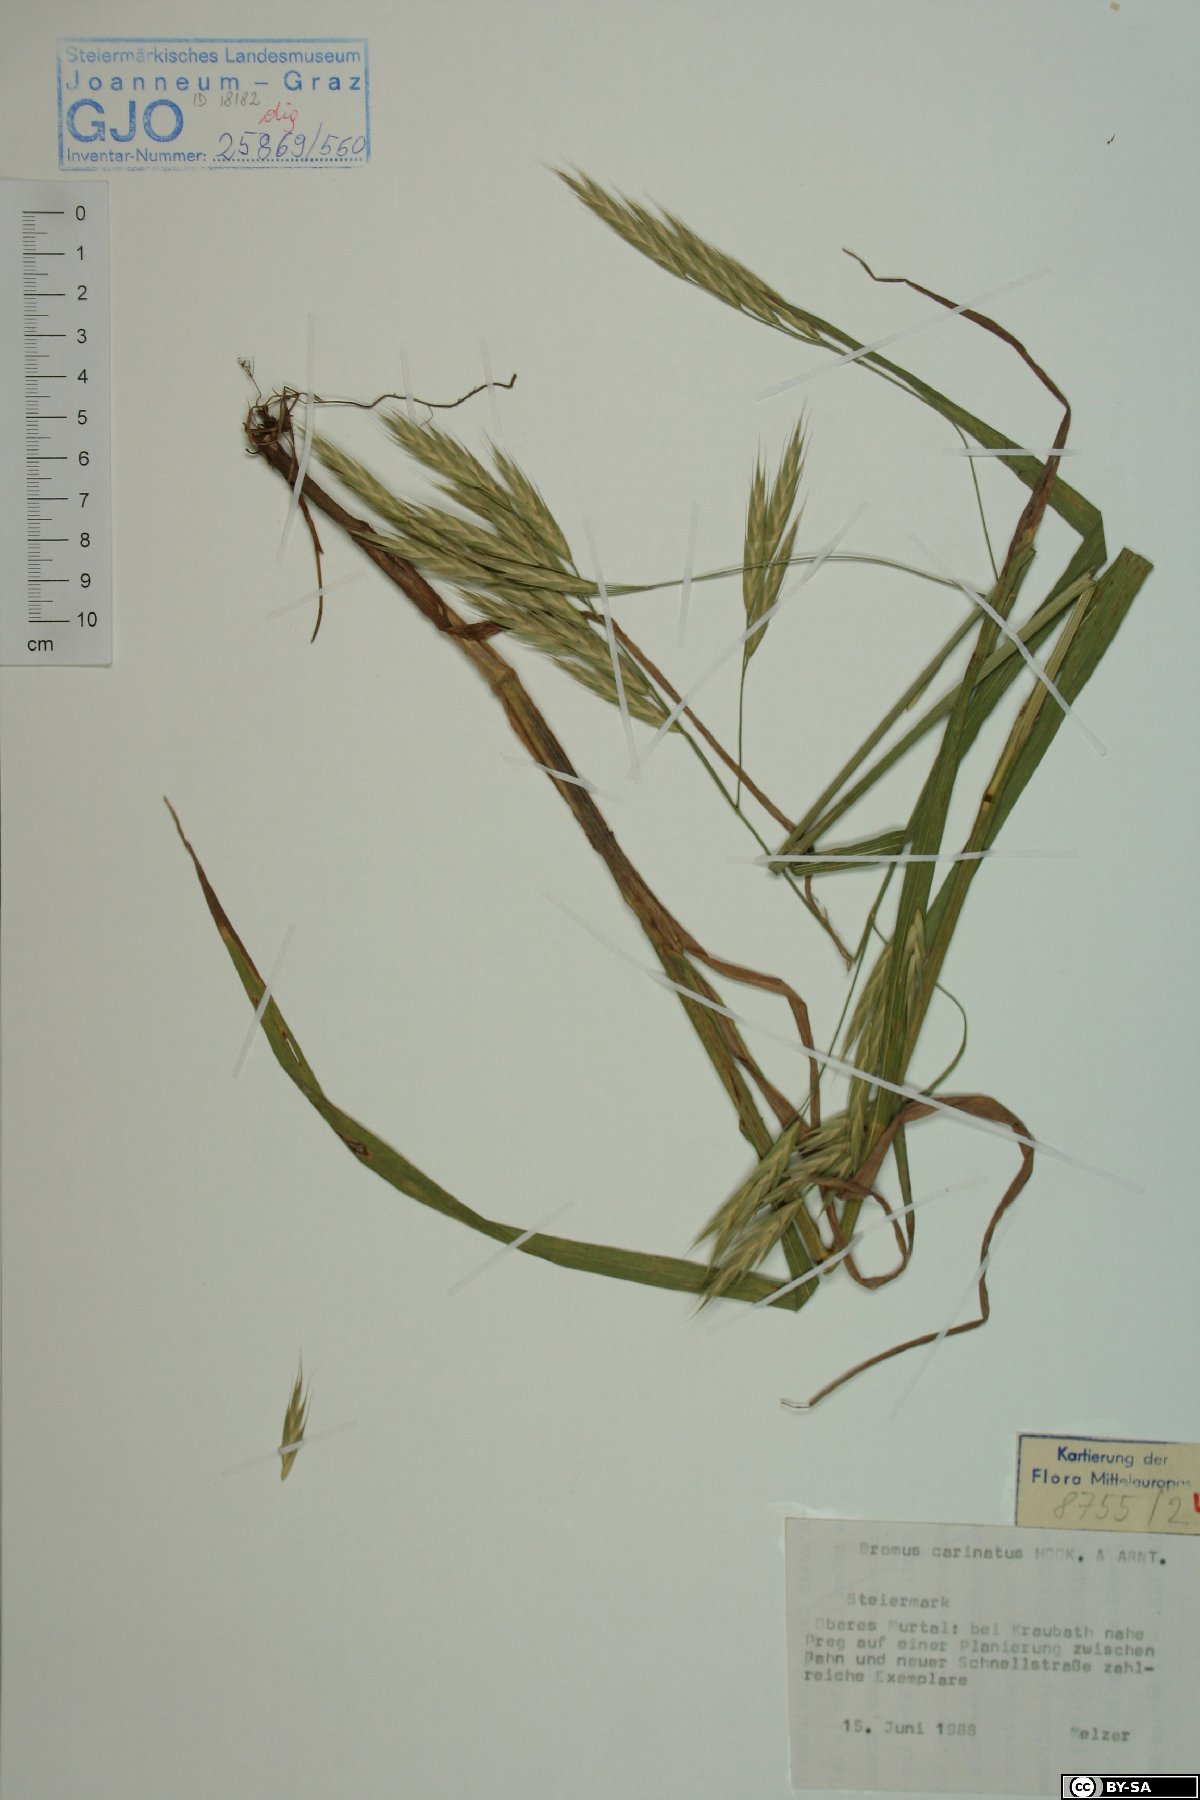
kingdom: Plantae
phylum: Tracheophyta
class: Liliopsida
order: Poales
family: Poaceae
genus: Bromus
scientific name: Bromus carinatus
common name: Mountain brome
